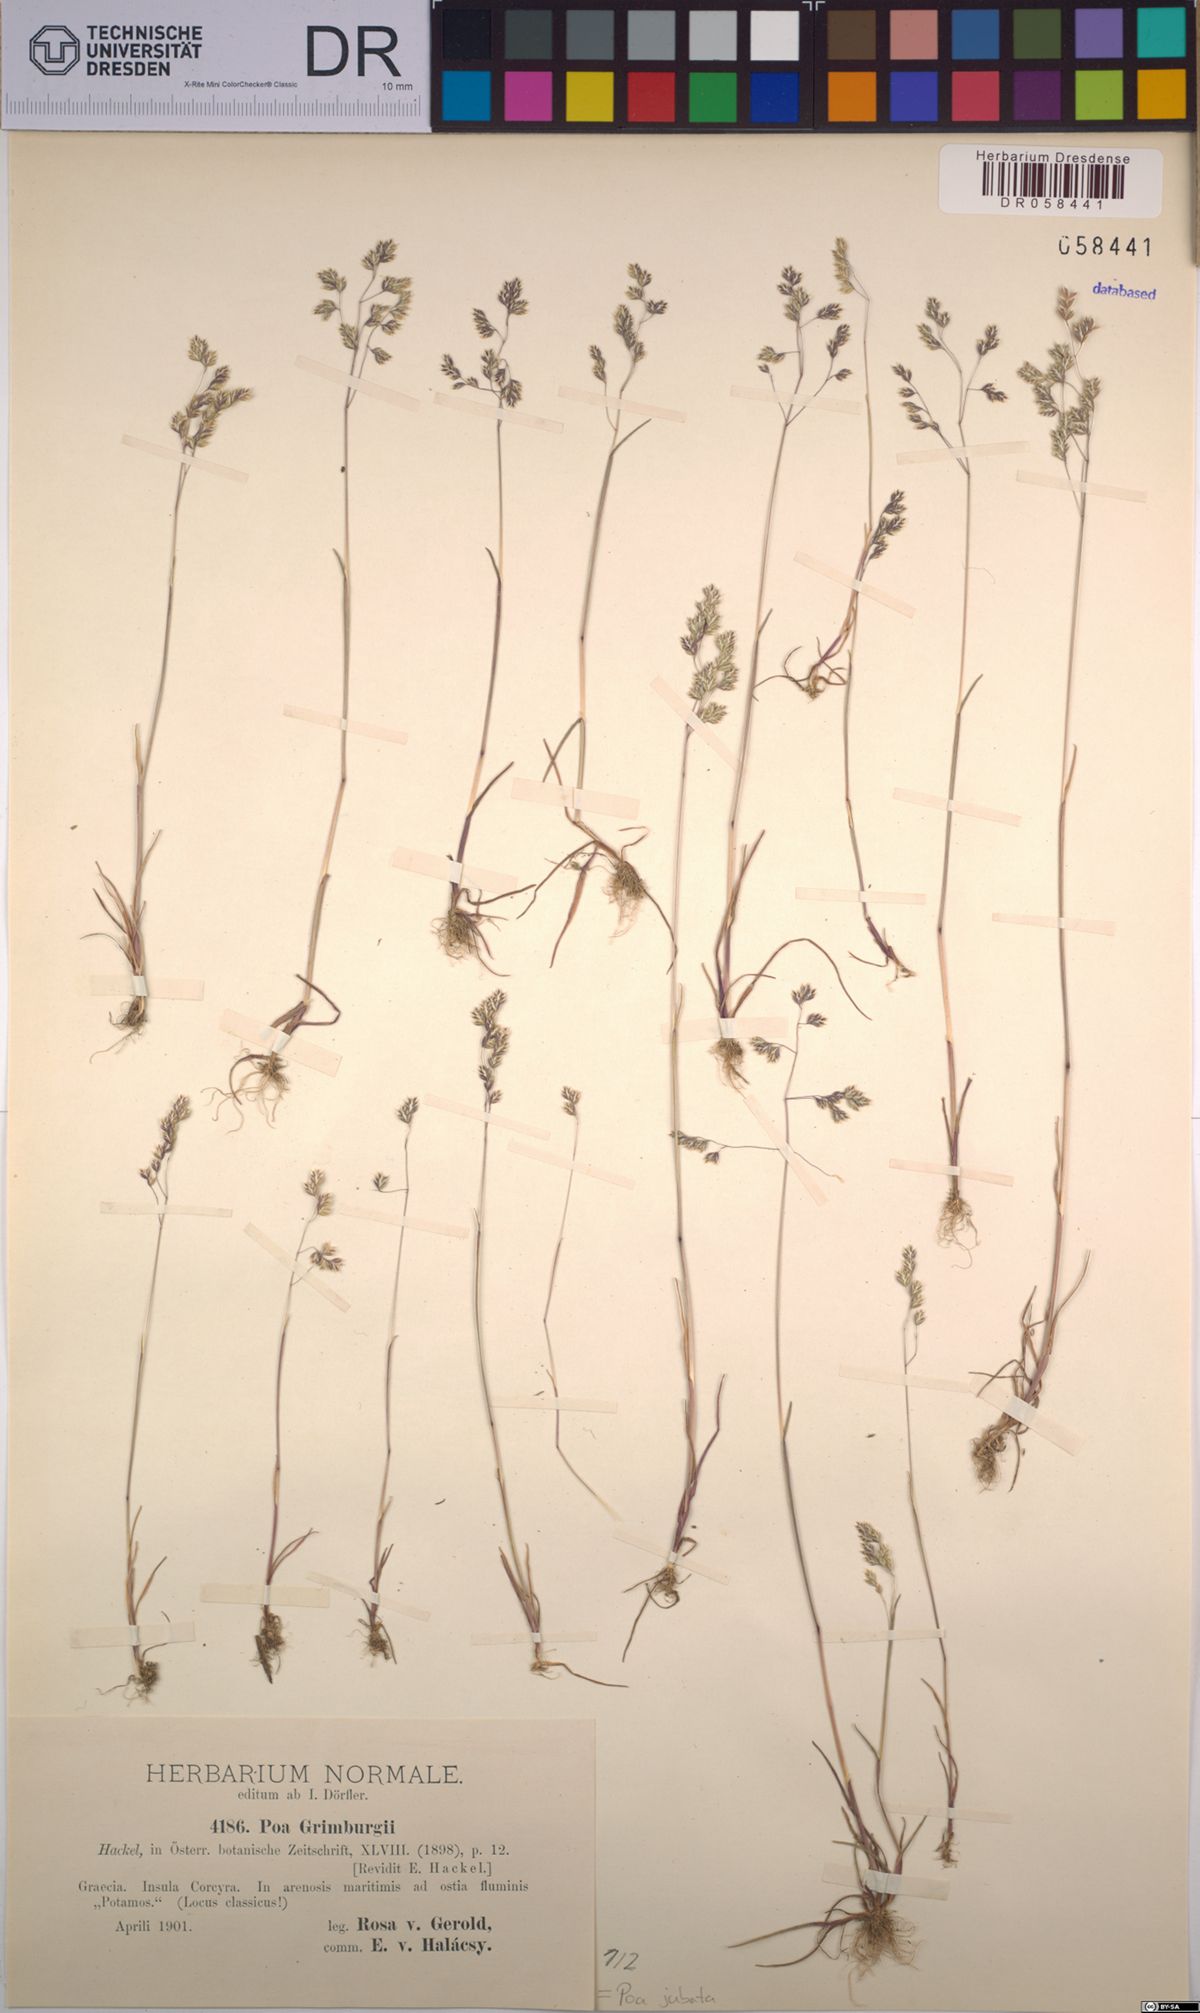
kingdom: Plantae
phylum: Tracheophyta
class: Liliopsida
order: Poales
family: Poaceae
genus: Poa
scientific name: Poa jubata
